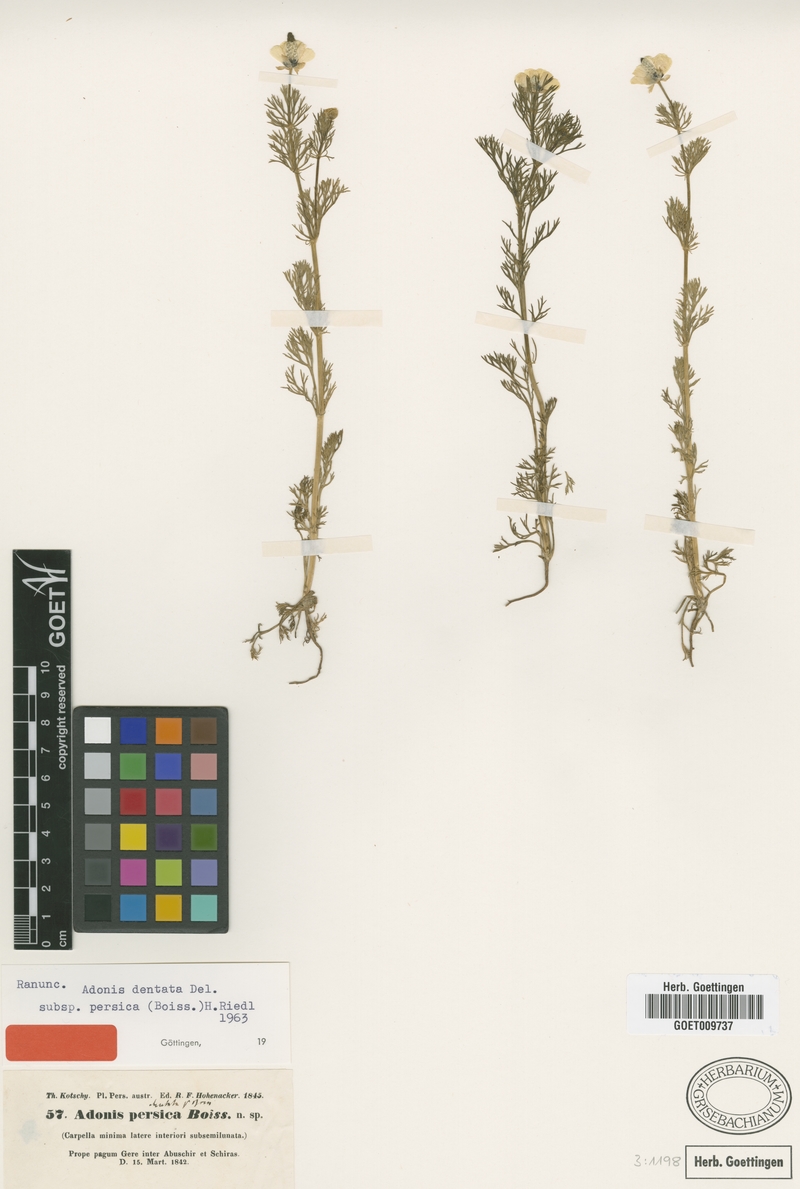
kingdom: Plantae
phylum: Tracheophyta
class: Magnoliopsida
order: Ranunculales
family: Ranunculaceae
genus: Adonis
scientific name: Adonis dentata
